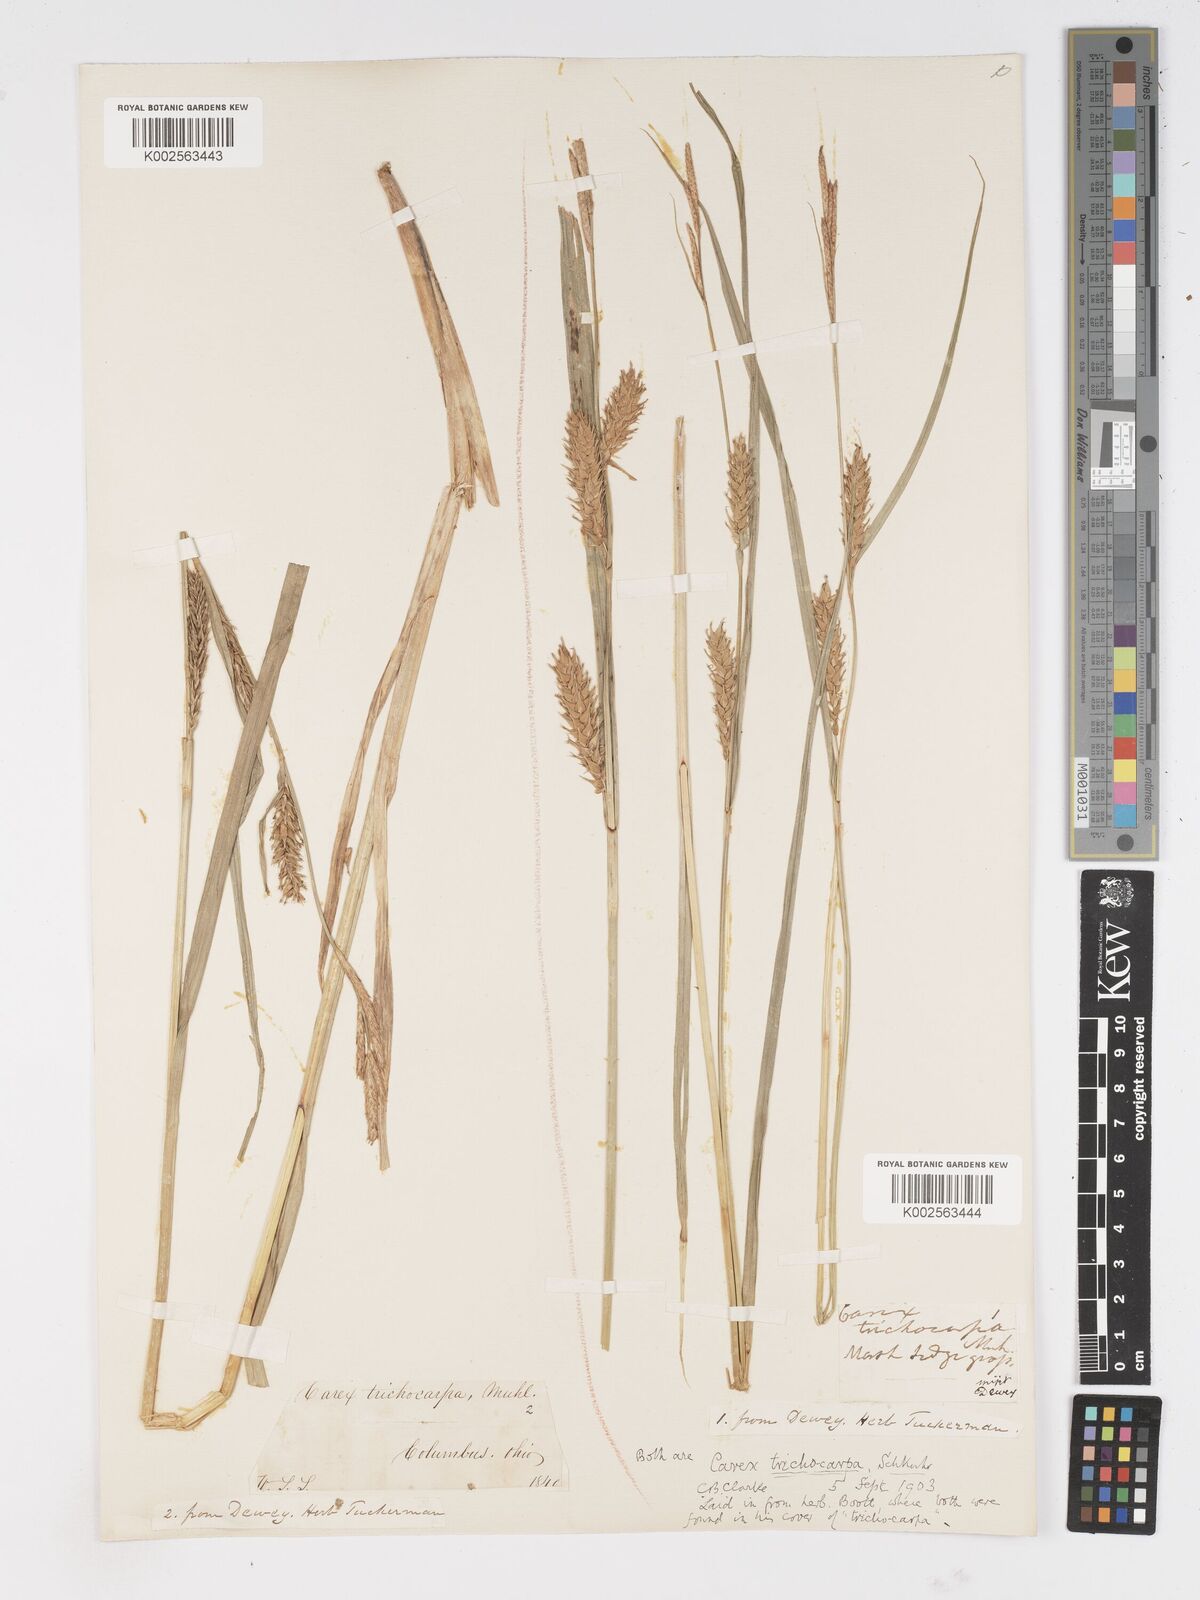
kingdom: Plantae
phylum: Tracheophyta
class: Liliopsida
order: Poales
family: Cyperaceae
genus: Carex
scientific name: Carex trichocarpa
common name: Hairy-fruited lake sedge
